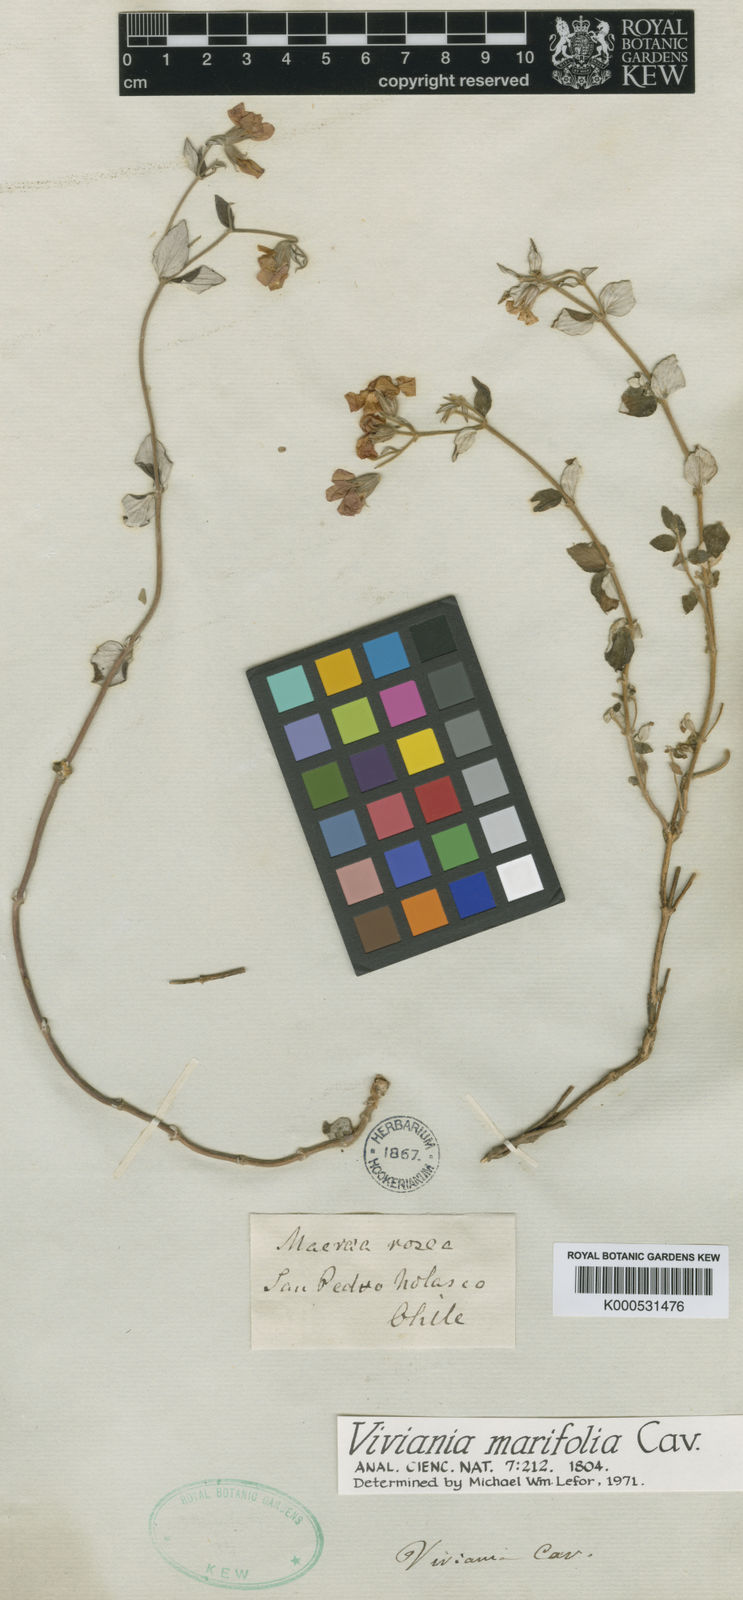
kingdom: Plantae
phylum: Tracheophyta
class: Magnoliopsida
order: Geraniales
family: Vivianiaceae
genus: Viviania
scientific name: Viviania marifolia
